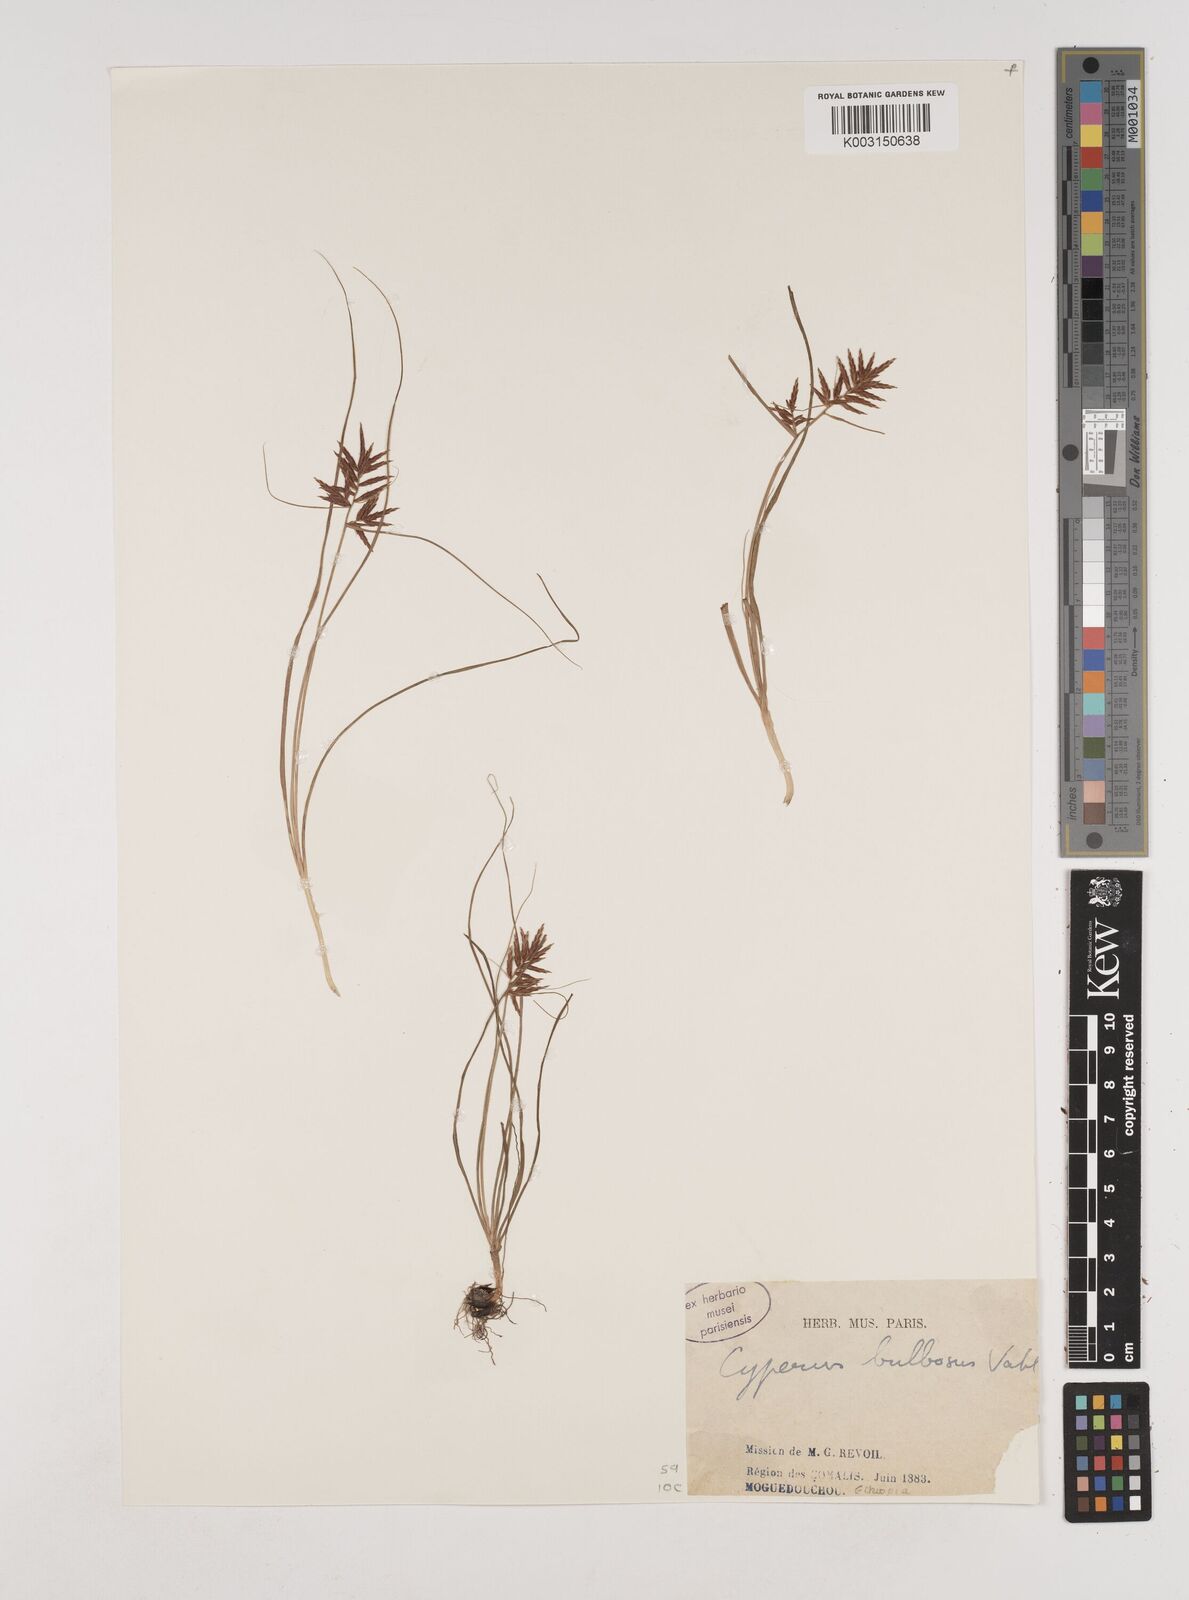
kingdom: Plantae
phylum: Tracheophyta
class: Liliopsida
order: Poales
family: Cyperaceae
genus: Cyperus
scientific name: Cyperus bulbosus
